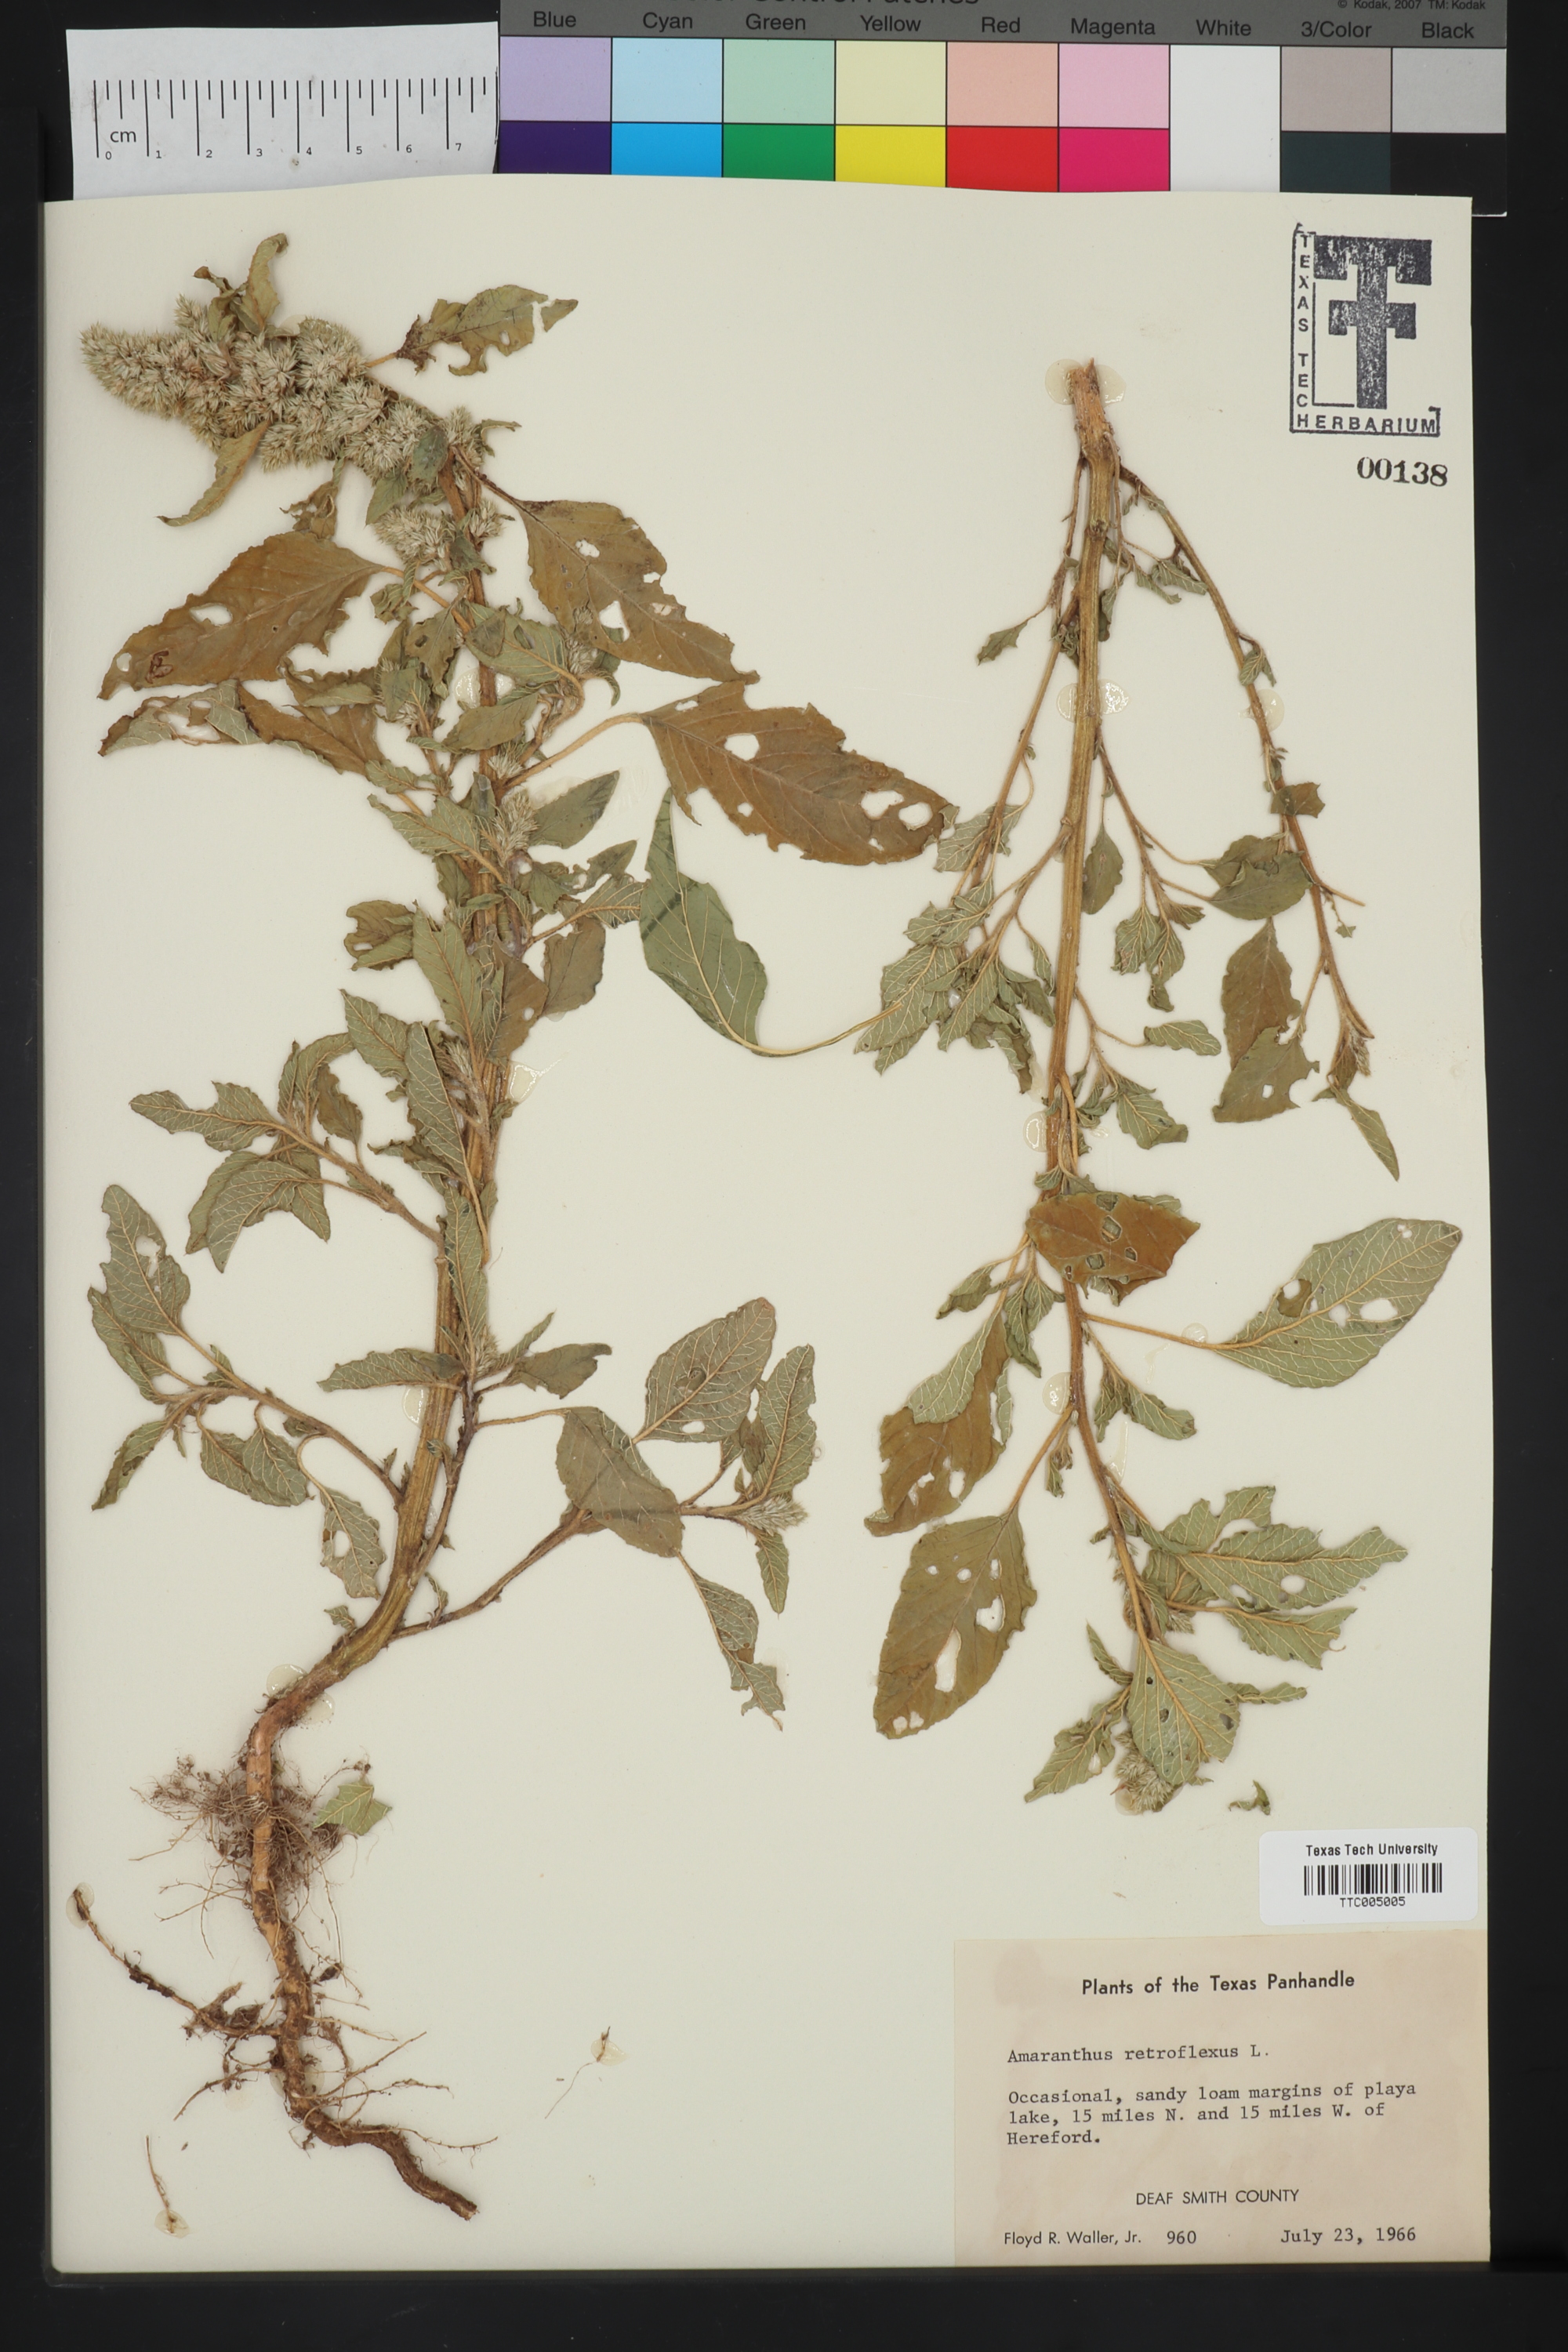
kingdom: Plantae
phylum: Tracheophyta
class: Magnoliopsida
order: Caryophyllales
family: Amaranthaceae
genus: Amaranthus
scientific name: Amaranthus retroflexus
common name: Redroot amaranth
